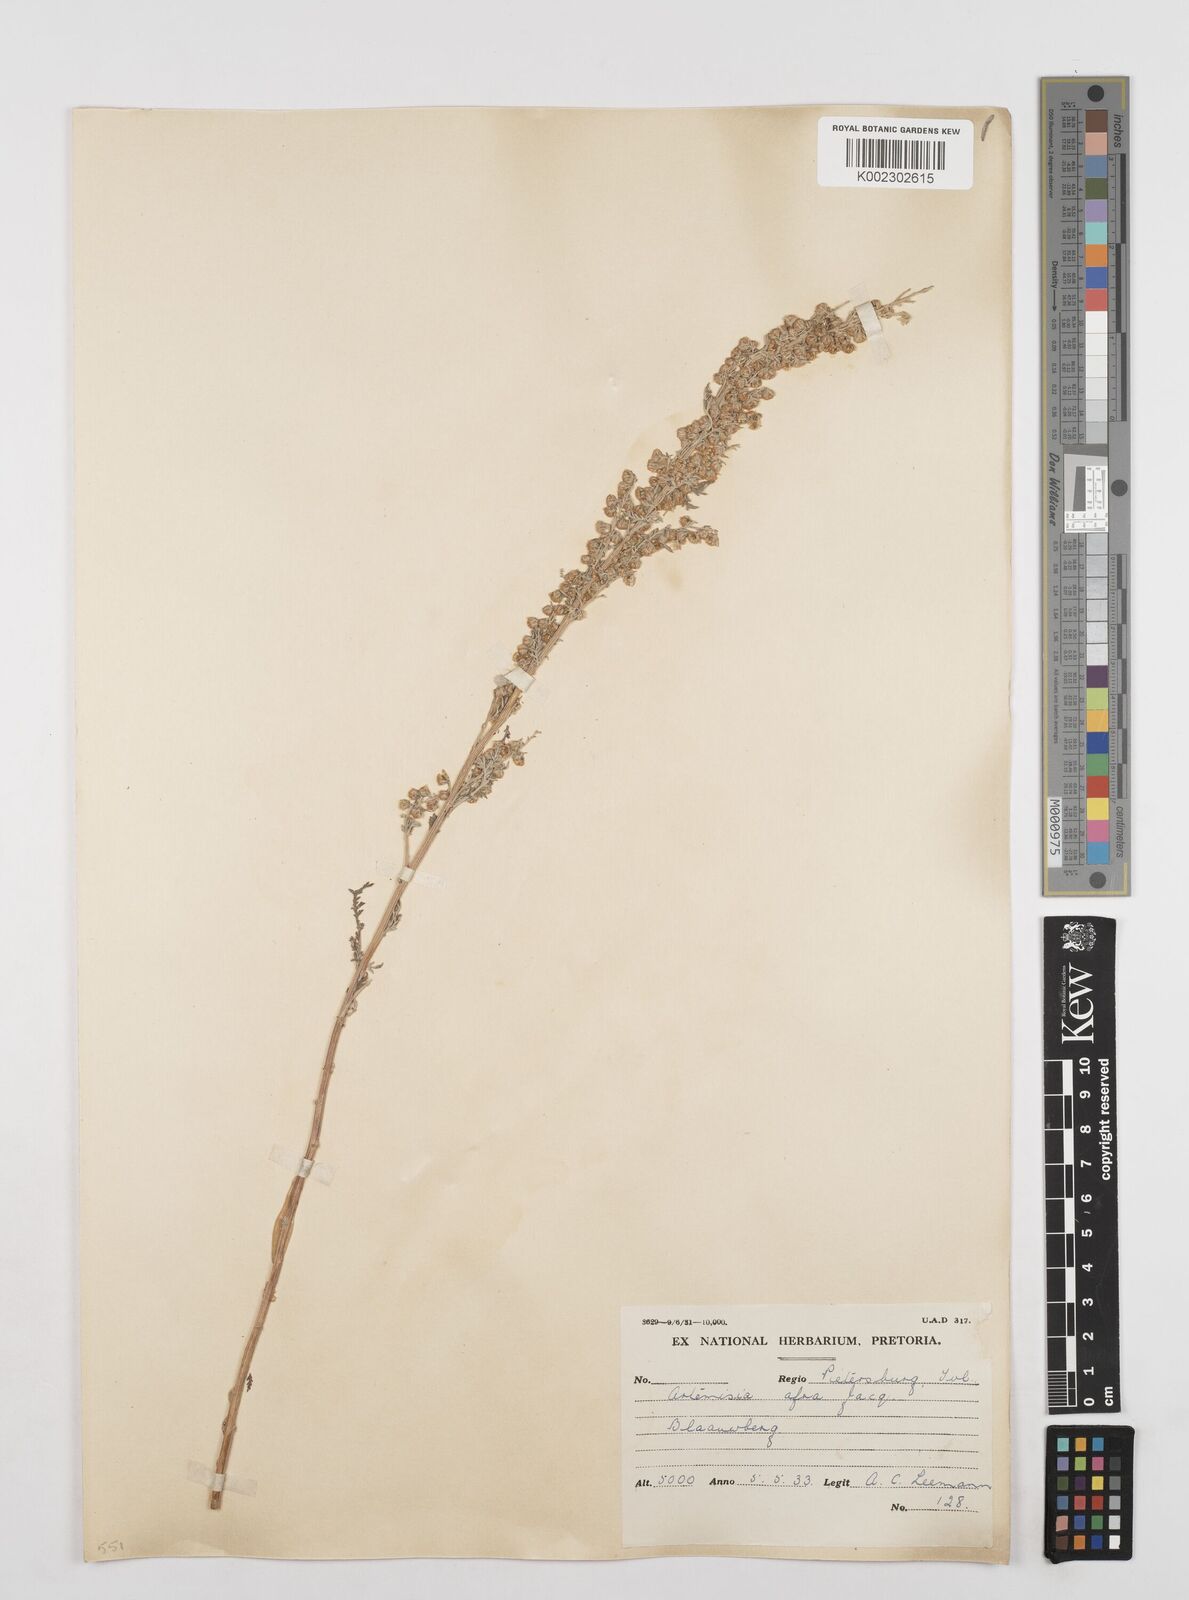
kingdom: Plantae
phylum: Tracheophyta
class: Magnoliopsida
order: Asterales
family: Asteraceae
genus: Artemisia
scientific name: Artemisia afra
